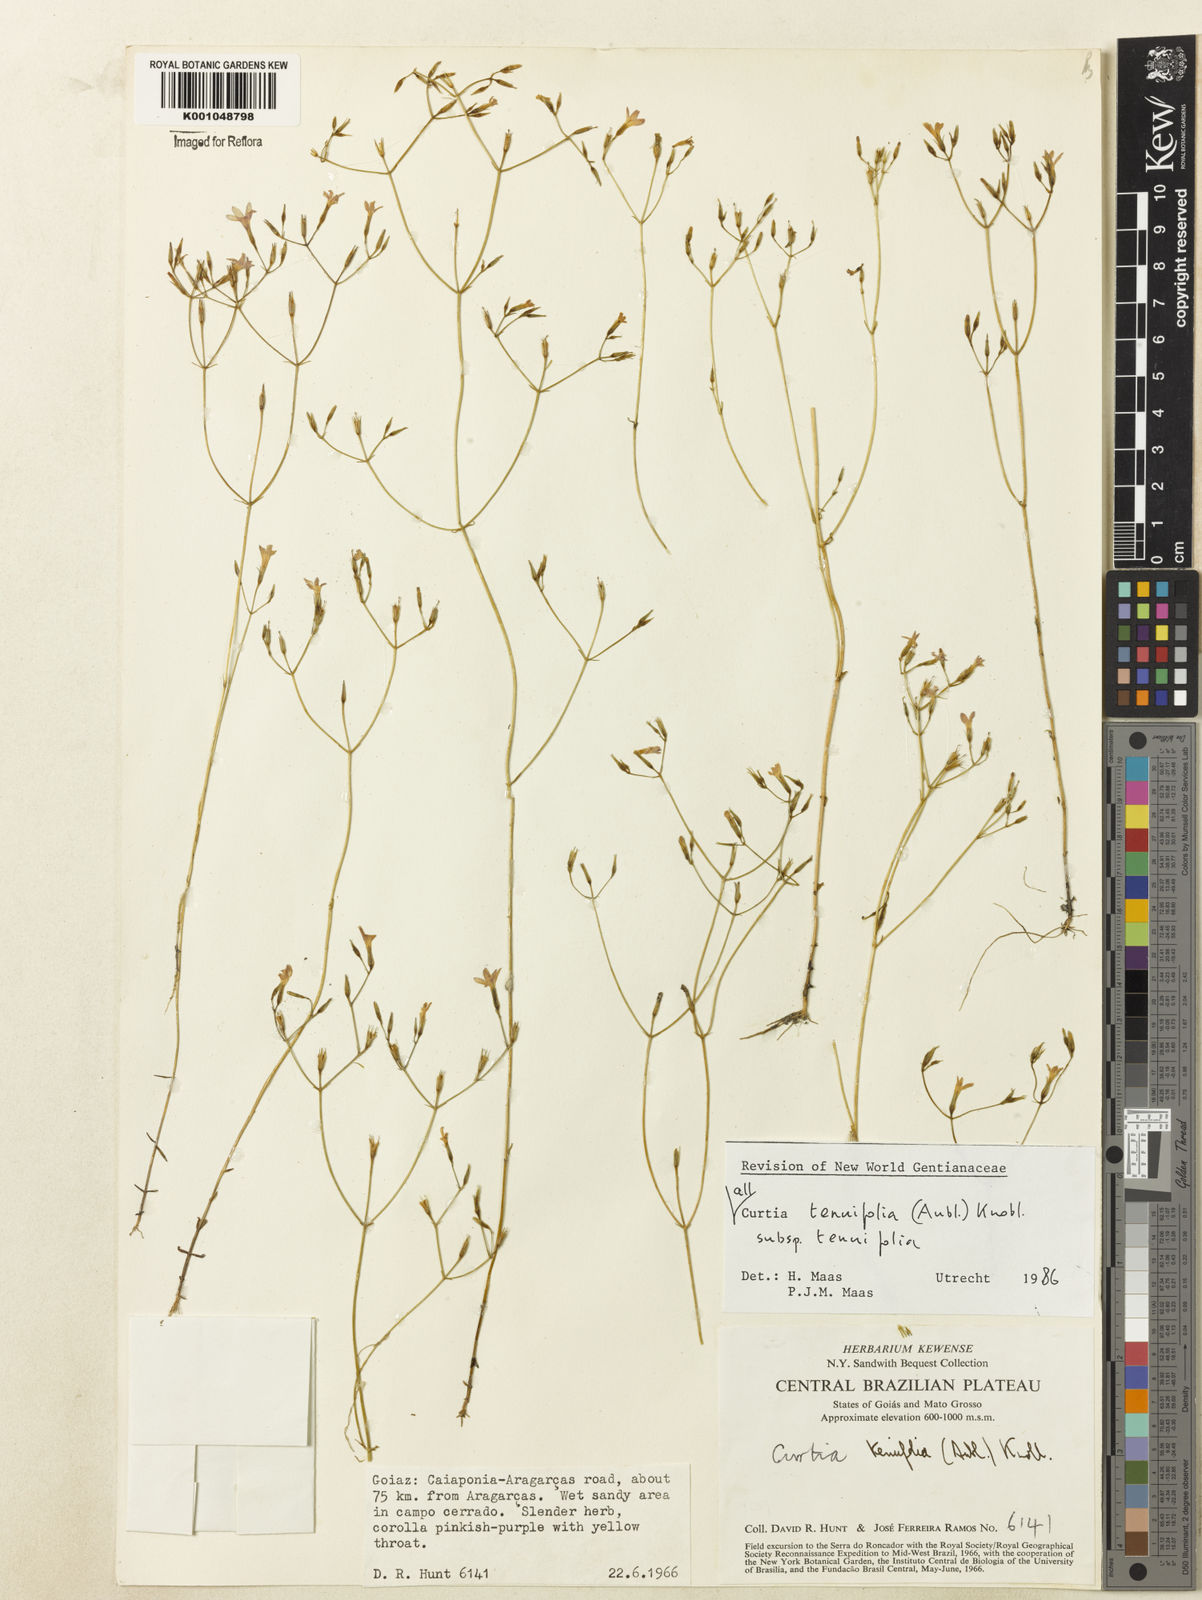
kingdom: Plantae
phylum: Tracheophyta
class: Magnoliopsida
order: Gentianales
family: Gentianaceae
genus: Curtia
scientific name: Curtia tenuifolia
